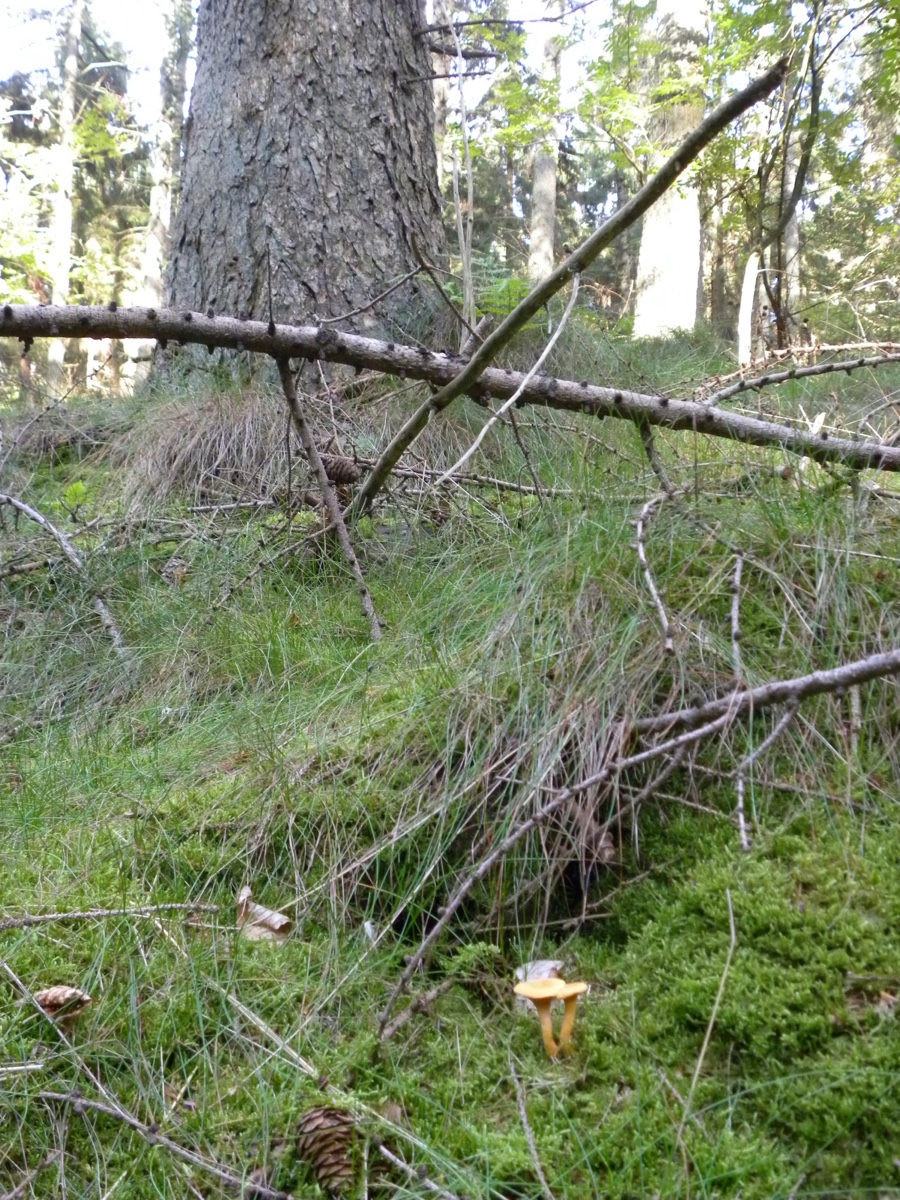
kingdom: Fungi
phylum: Basidiomycota
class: Agaricomycetes
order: Boletales
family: Hygrophoropsidaceae
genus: Hygrophoropsis
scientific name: Hygrophoropsis aurantiaca
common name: almindelig orangekantarel
